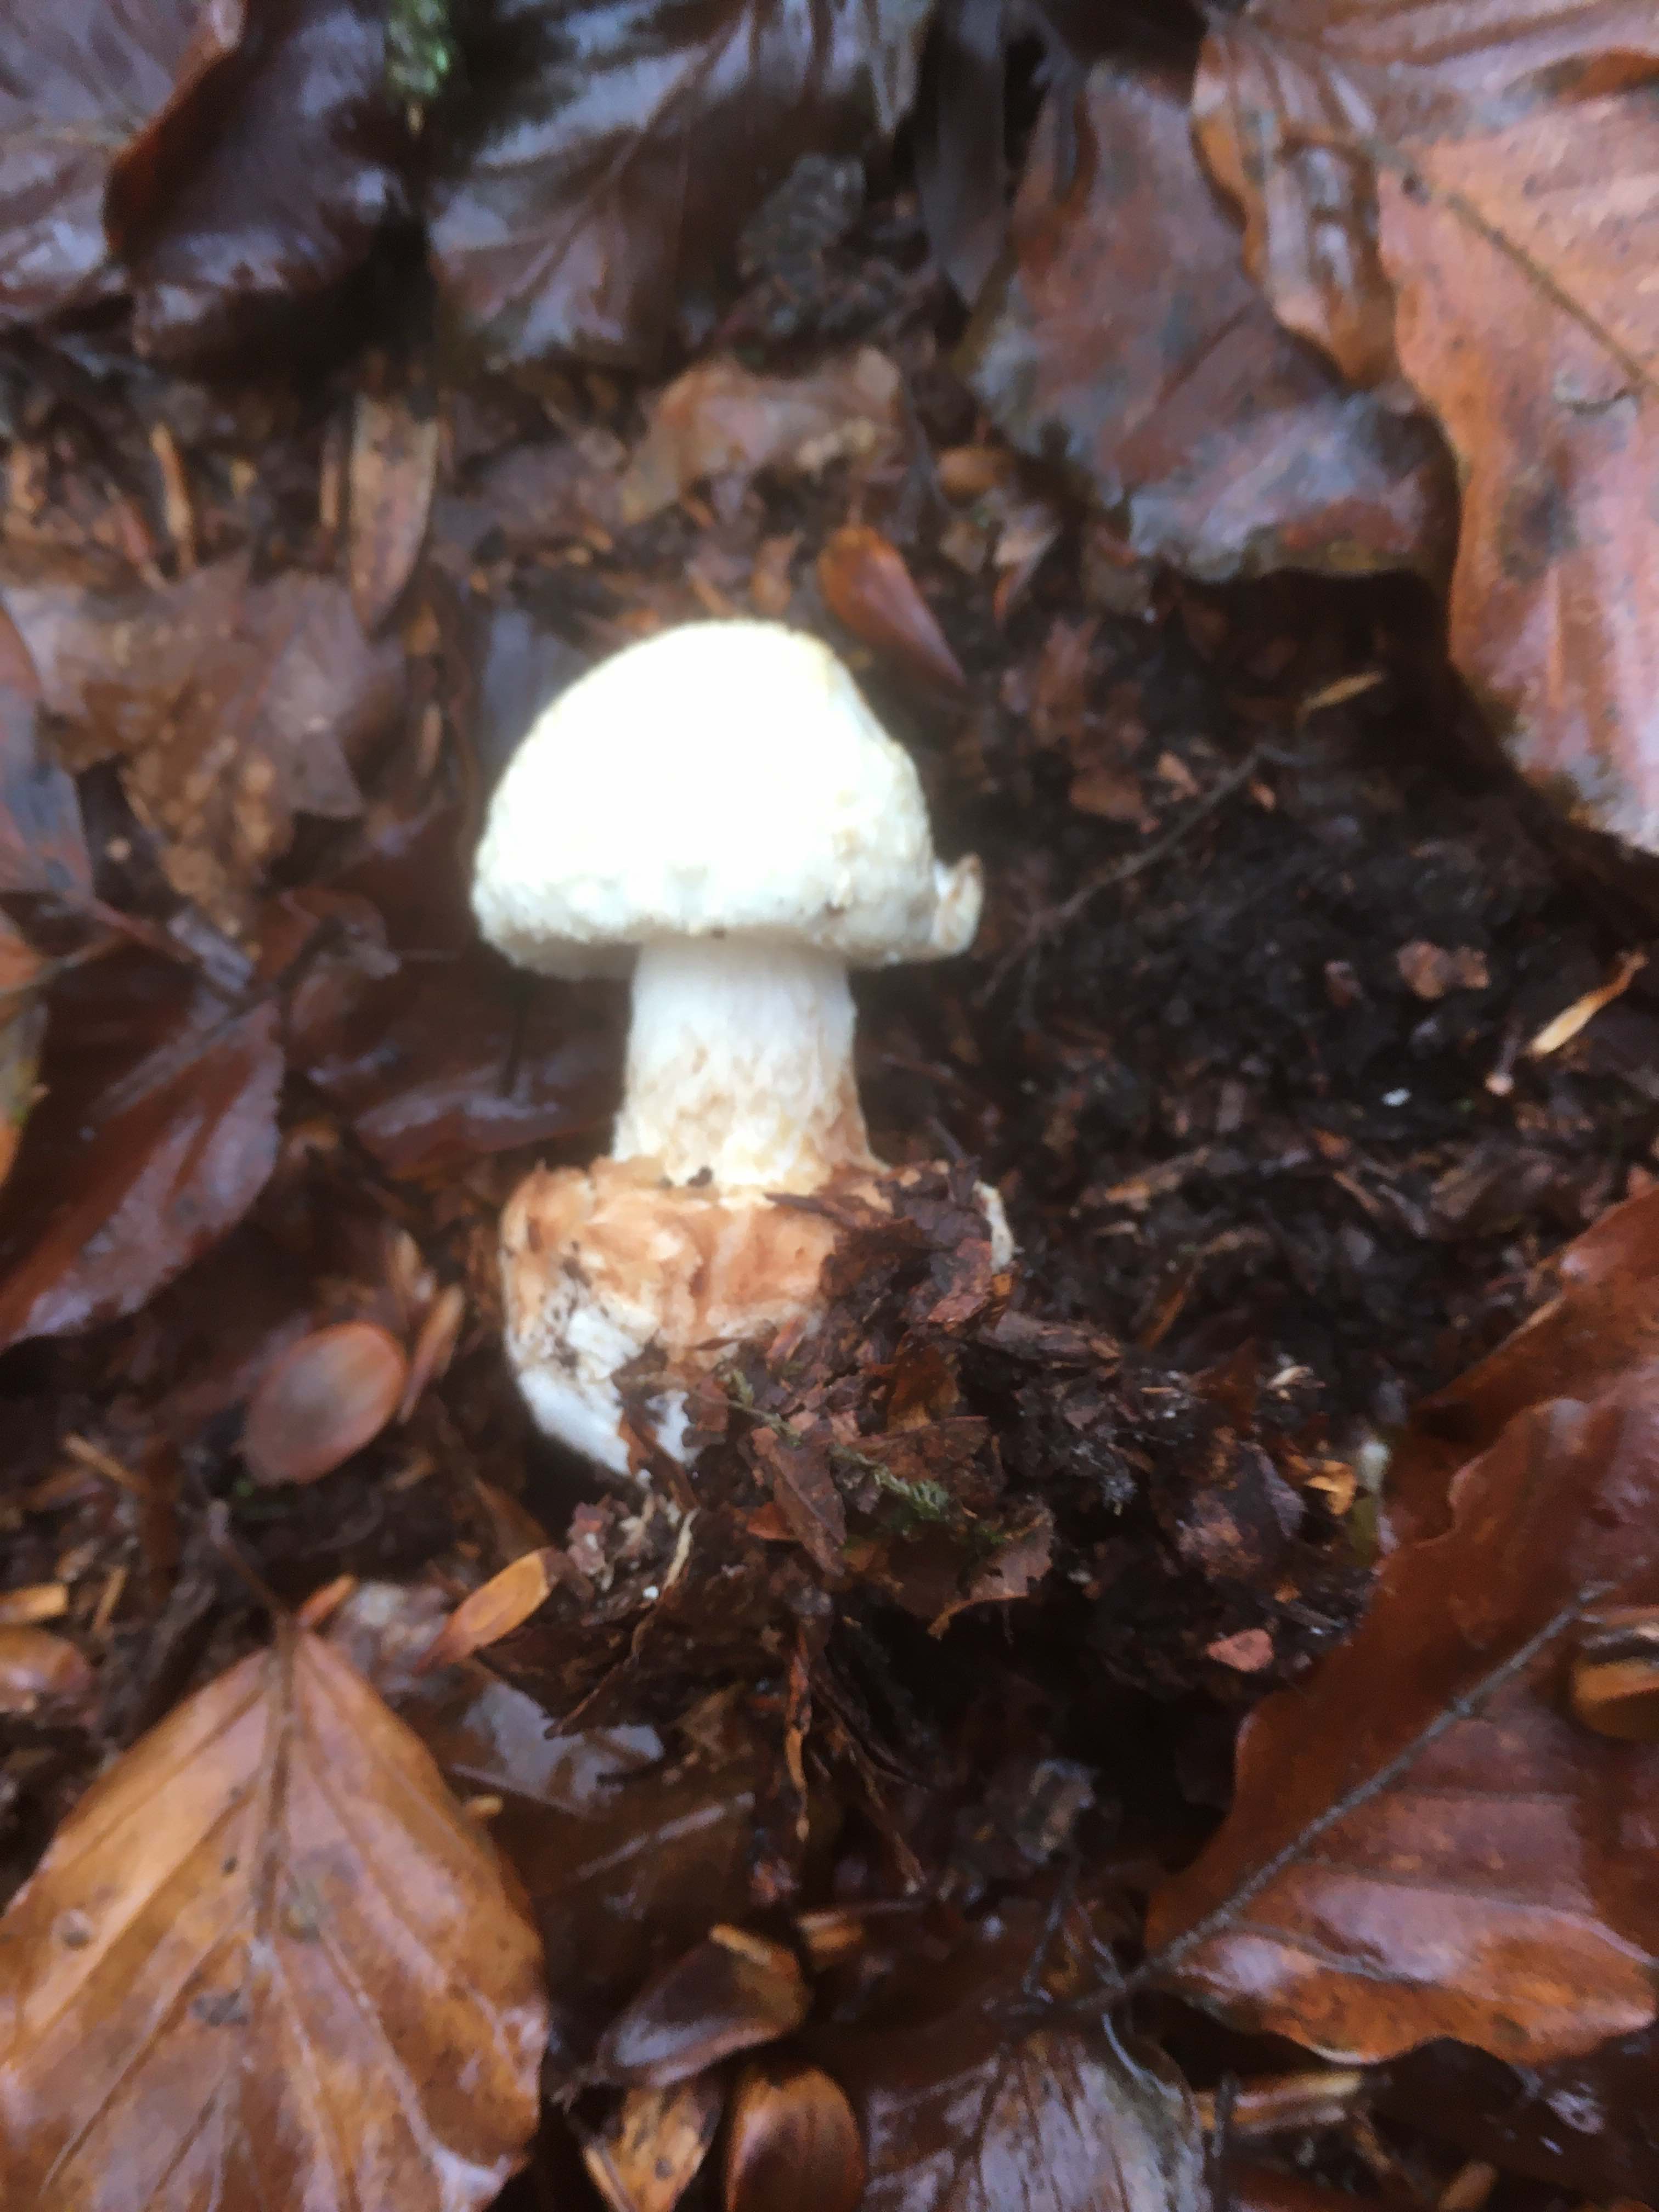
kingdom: Fungi
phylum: Basidiomycota
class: Agaricomycetes
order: Agaricales
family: Amanitaceae
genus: Amanita
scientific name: Amanita citrina
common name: kugleknoldet fluesvamp
